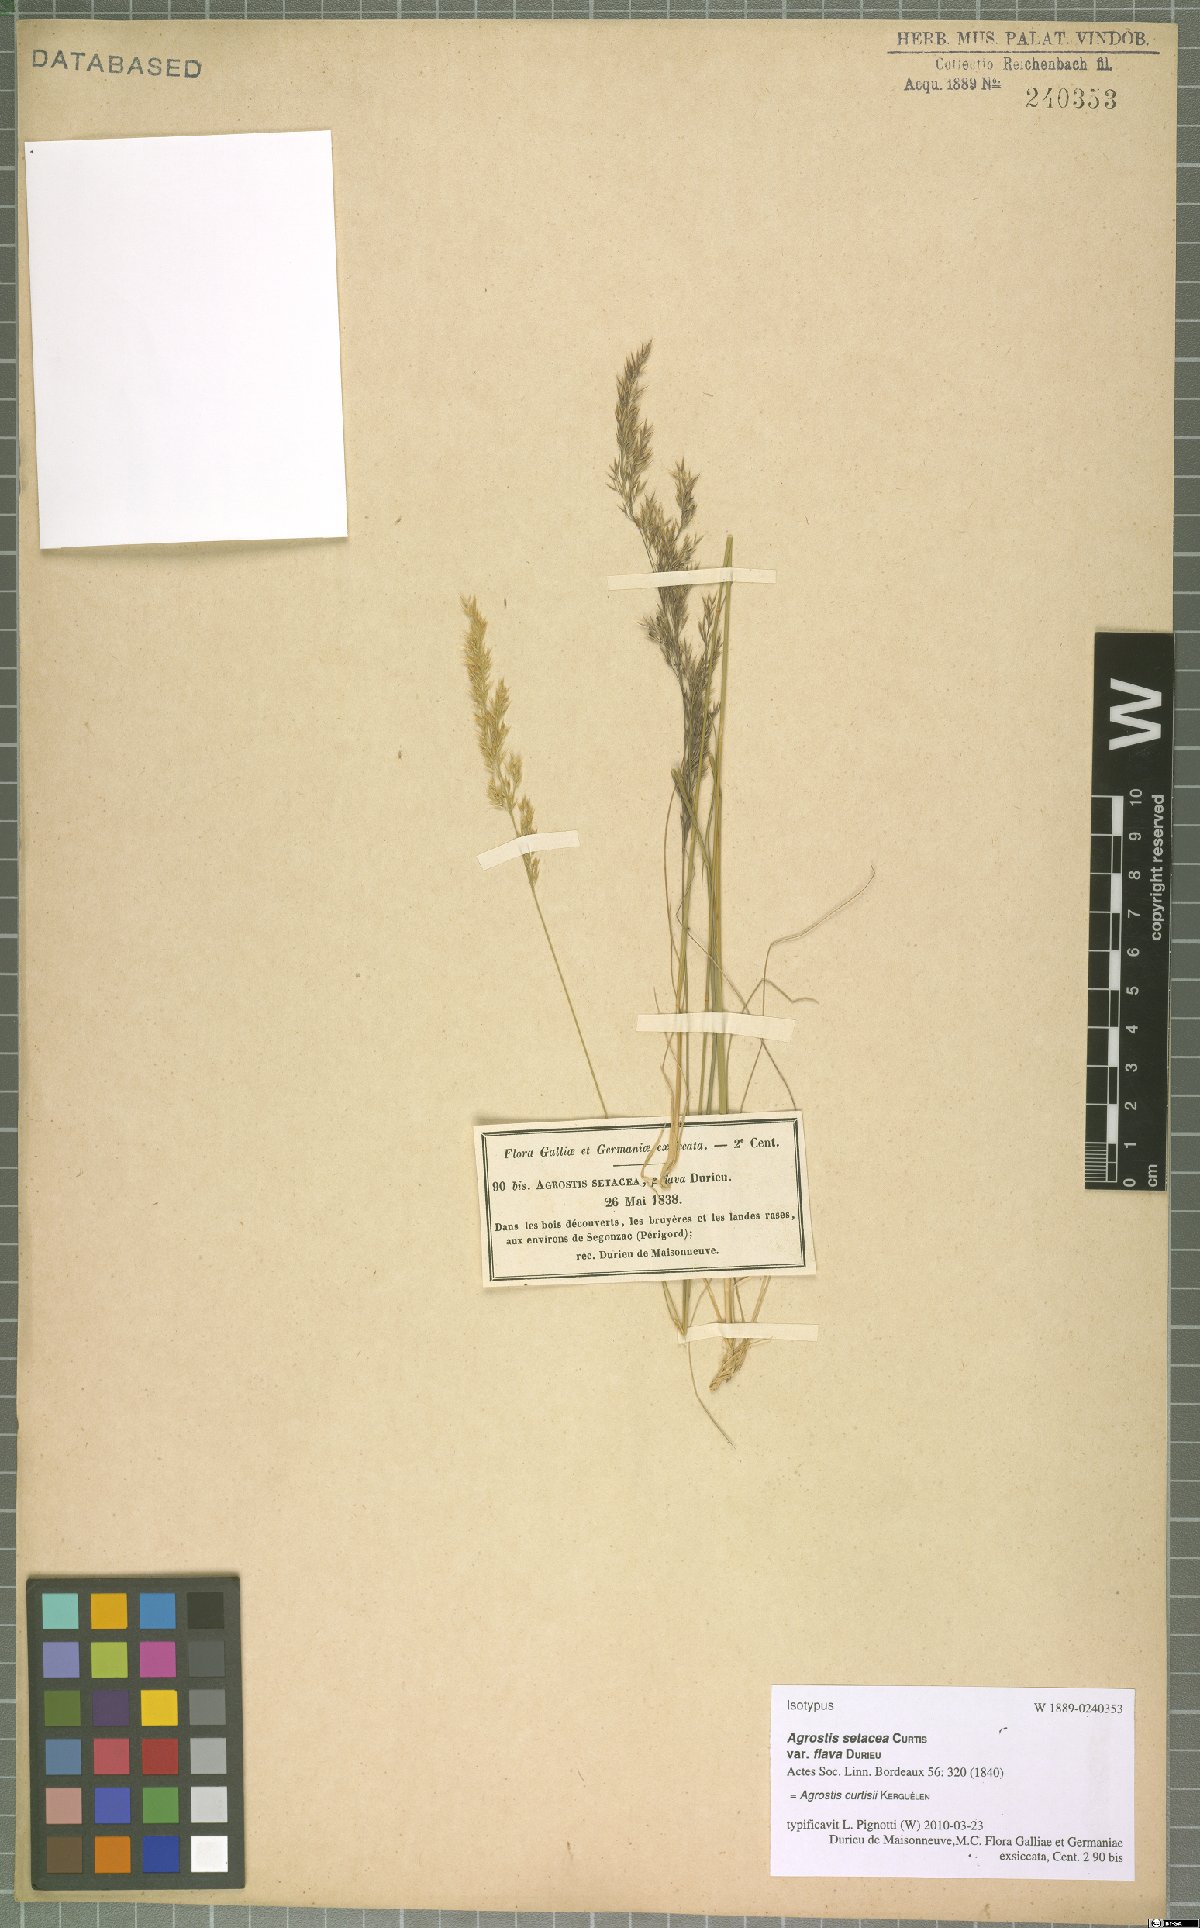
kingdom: Plantae
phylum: Tracheophyta
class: Liliopsida
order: Poales
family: Poaceae
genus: Alpagrostis
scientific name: Alpagrostis setacea
